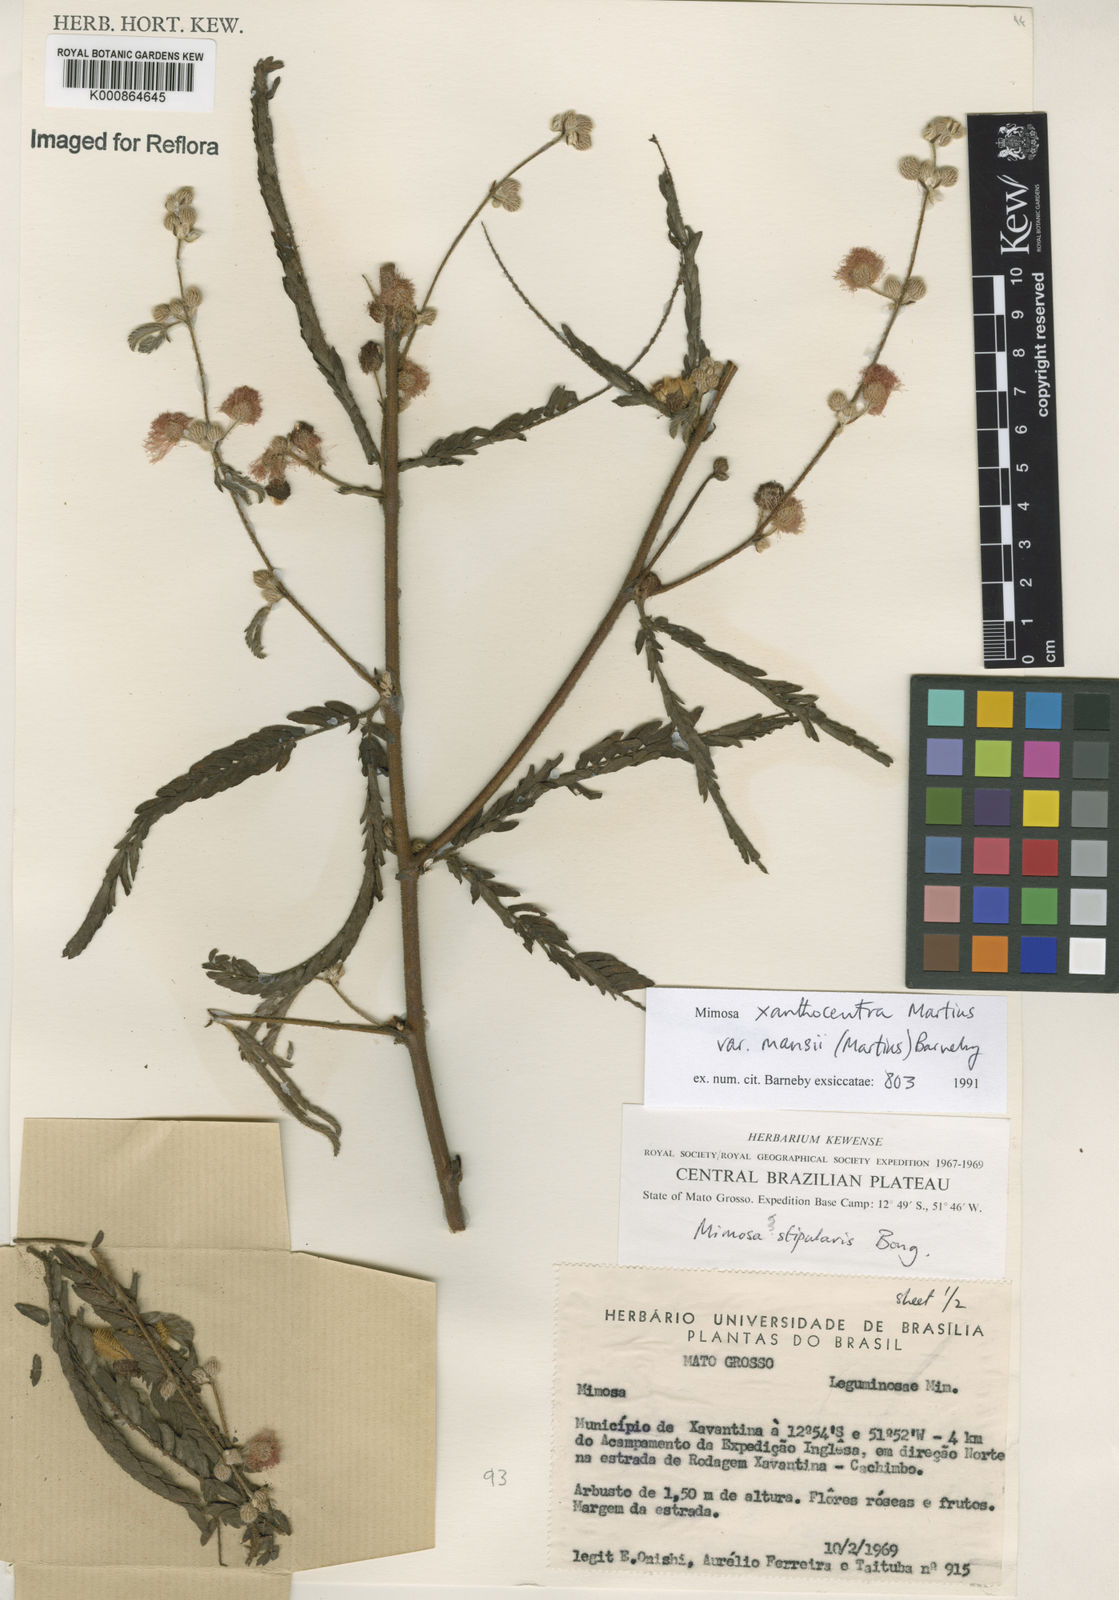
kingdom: Plantae
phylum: Tracheophyta
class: Magnoliopsida
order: Fabales
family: Fabaceae
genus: Mimosa
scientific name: Mimosa xanthocentra
